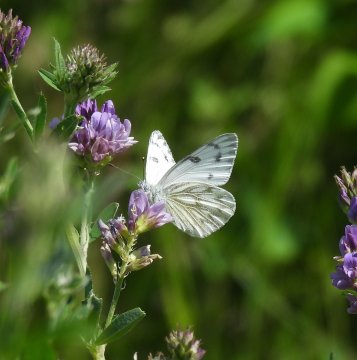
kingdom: Animalia
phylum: Arthropoda
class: Insecta
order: Lepidoptera
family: Pieridae
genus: Pontia
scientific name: Pontia occidentalis
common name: Western White
